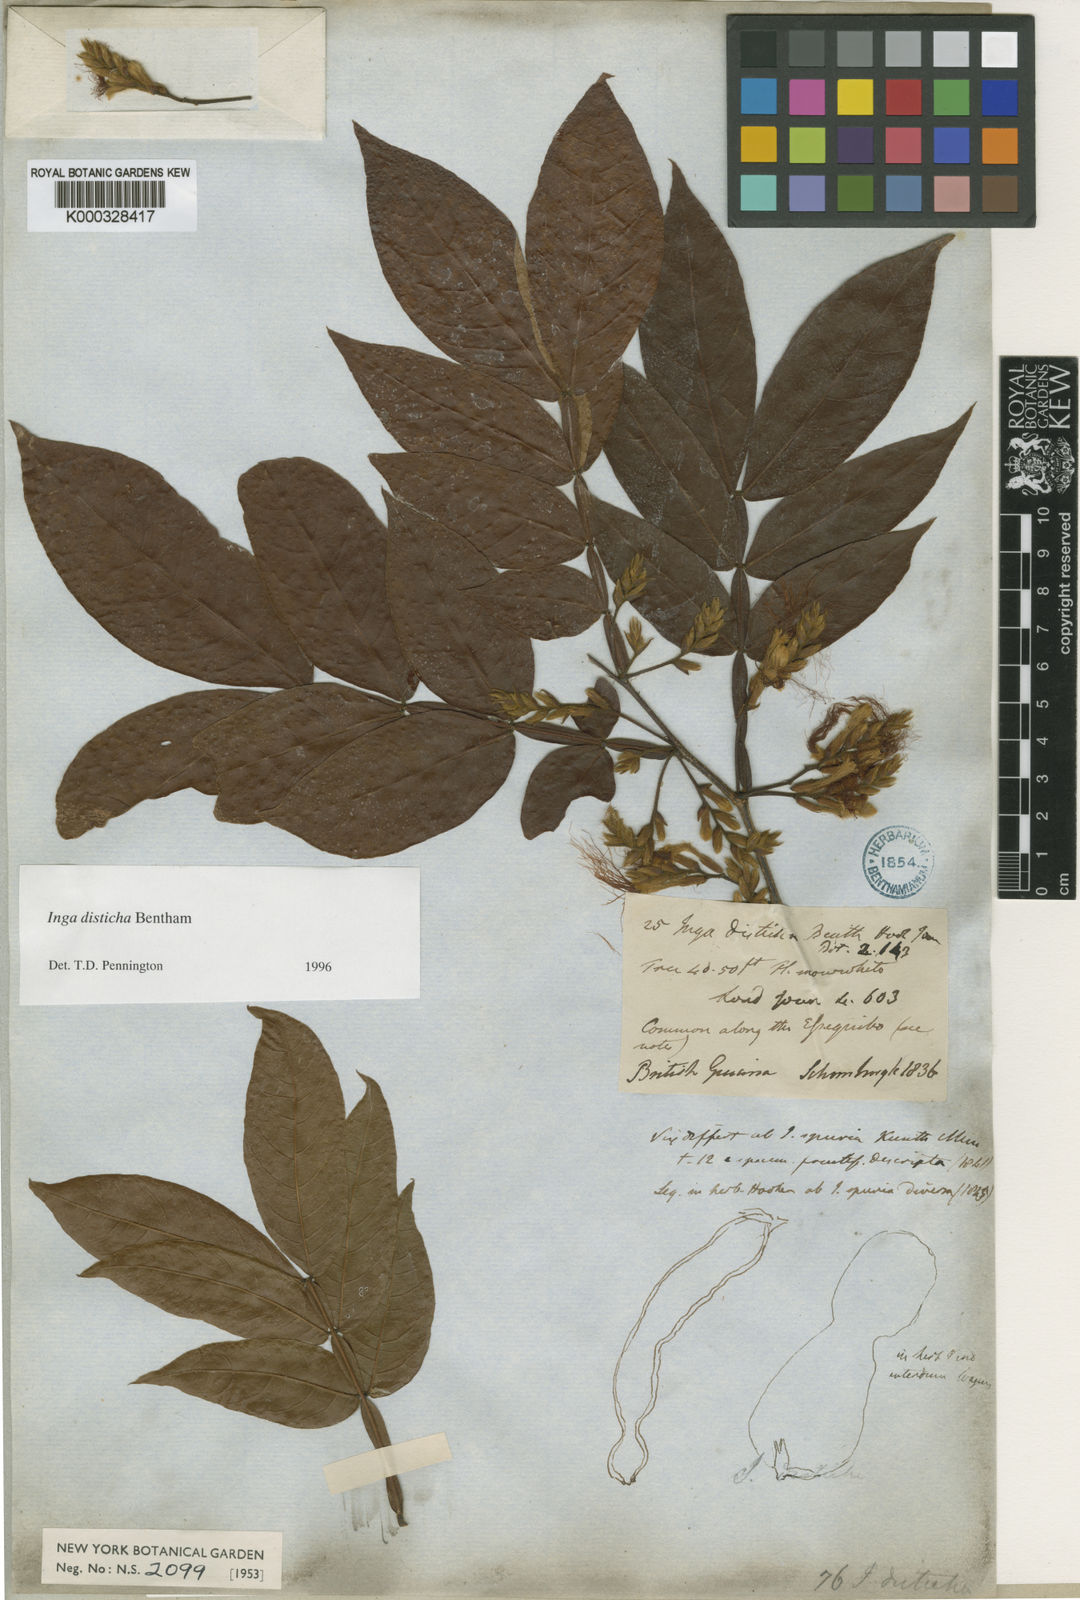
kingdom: Plantae
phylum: Tracheophyta
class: Magnoliopsida
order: Fabales
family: Fabaceae
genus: Inga
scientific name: Inga disticha
